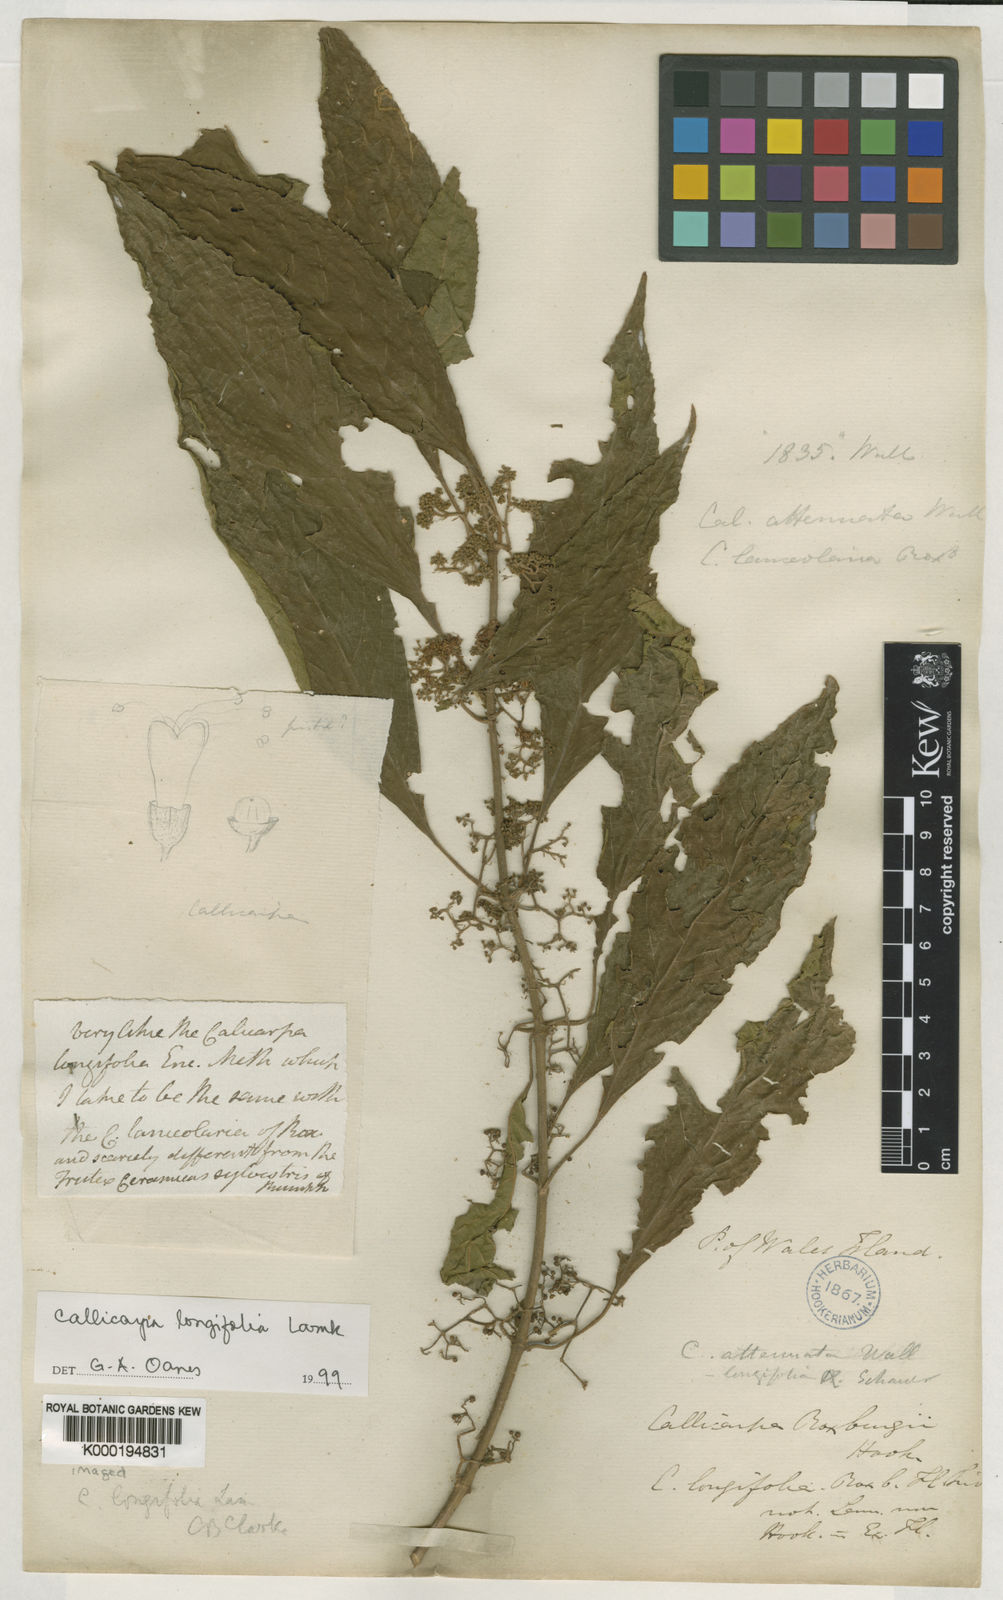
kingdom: Plantae
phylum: Tracheophyta
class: Magnoliopsida
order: Lamiales
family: Lamiaceae
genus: Callicarpa
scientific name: Callicarpa longifolia
